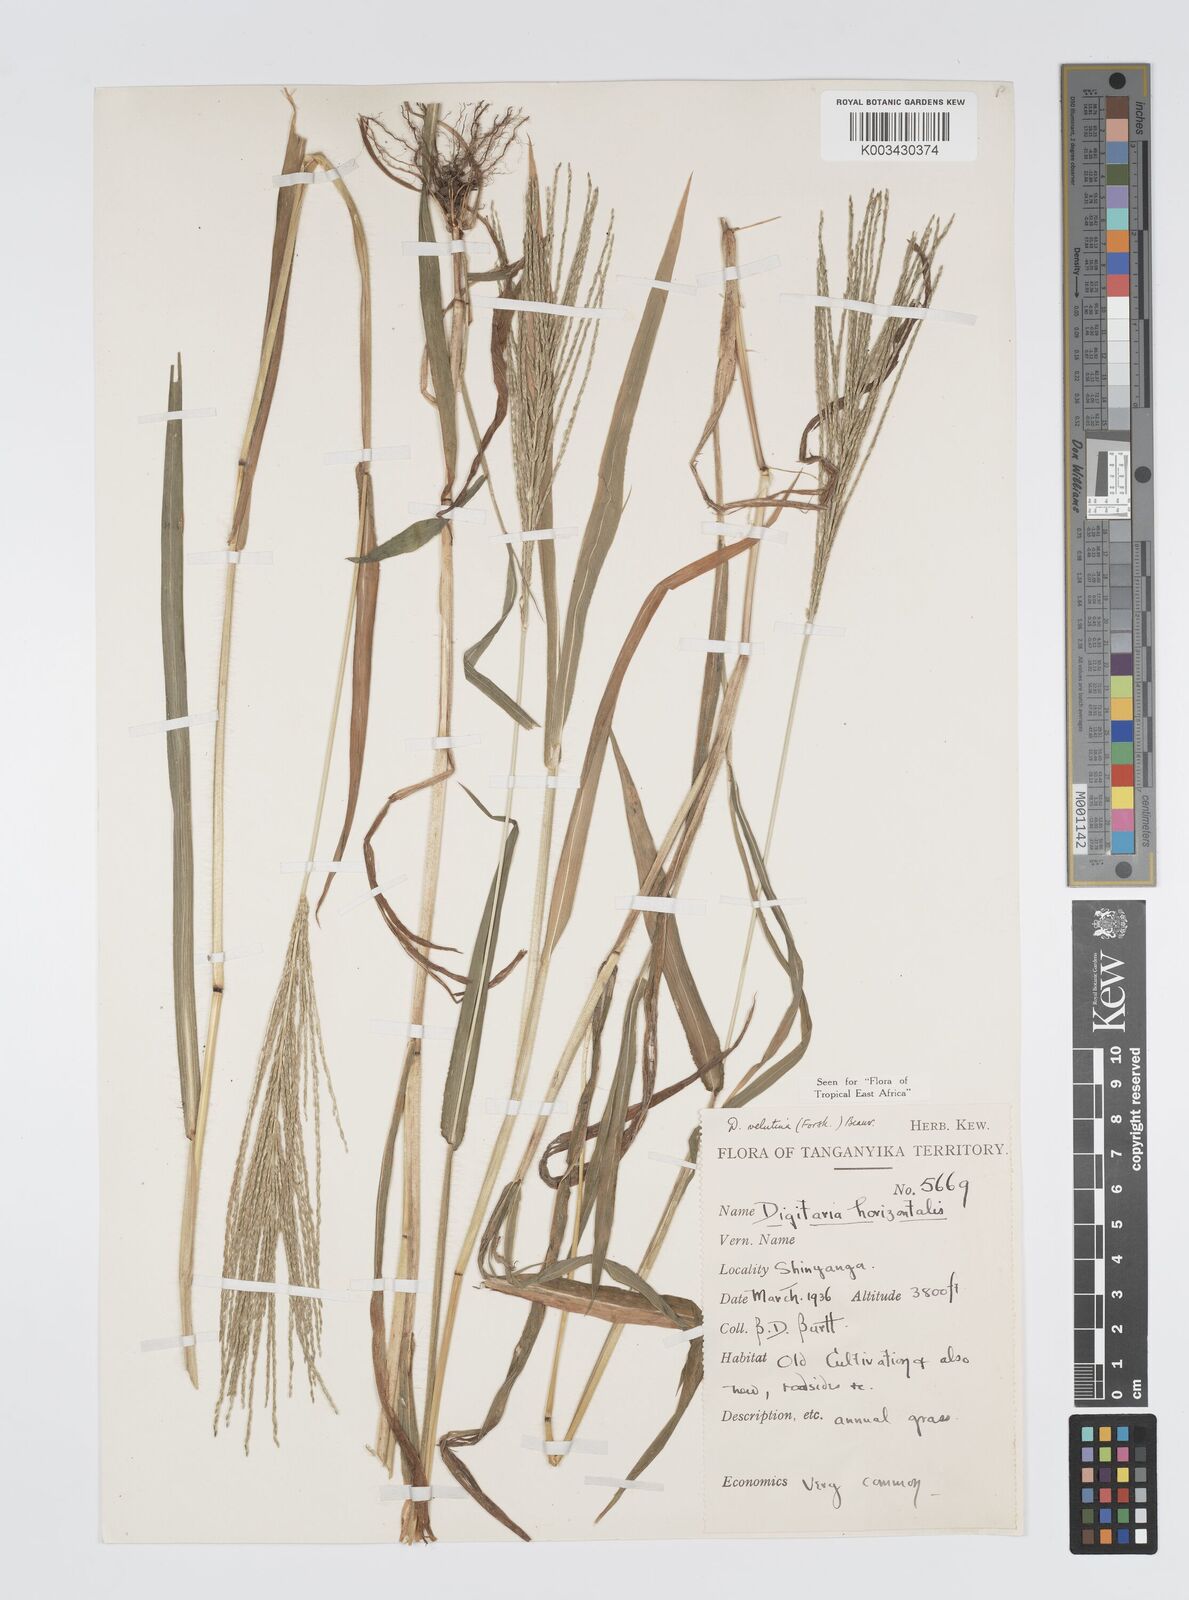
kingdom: Plantae
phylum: Tracheophyta
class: Liliopsida
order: Poales
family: Poaceae
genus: Digitaria
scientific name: Digitaria velutina
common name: Long-plume finger grass
